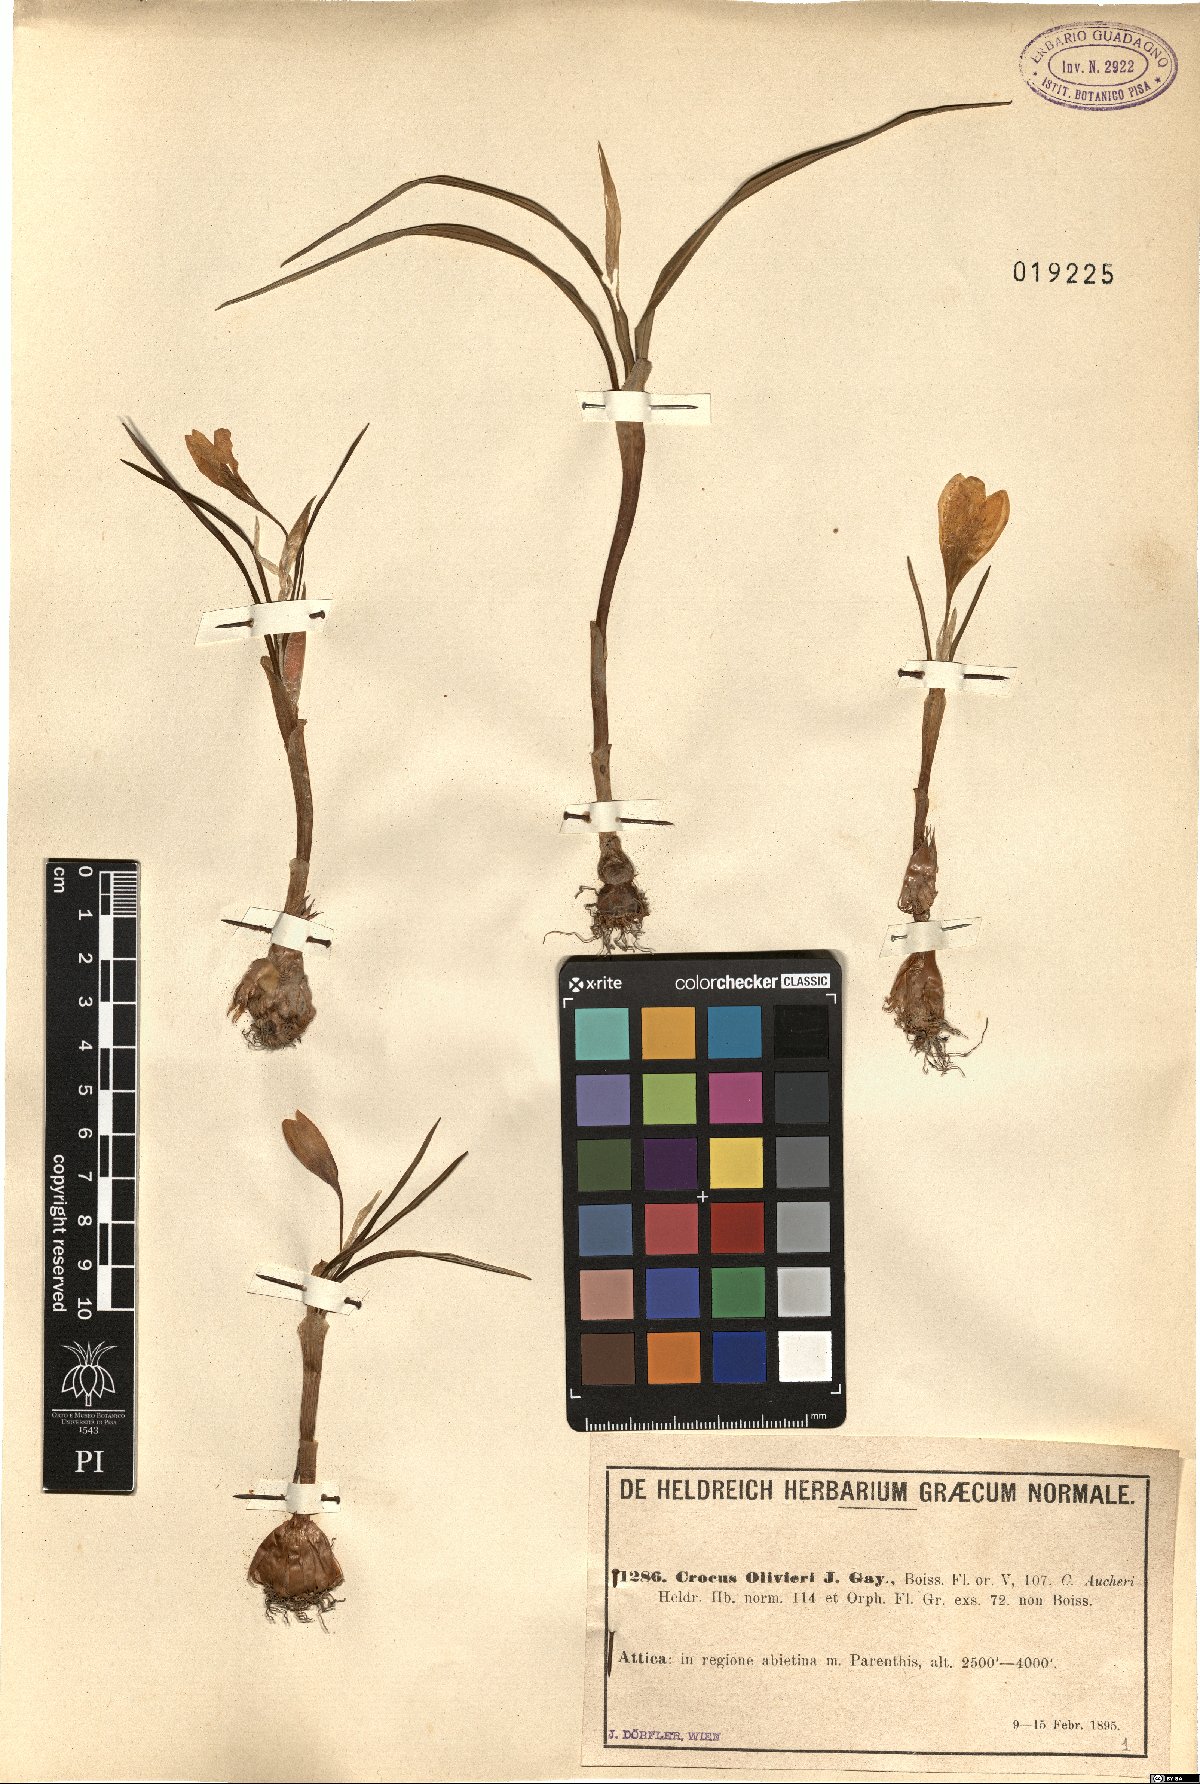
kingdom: Plantae
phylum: Tracheophyta
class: Liliopsida
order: Asparagales
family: Iridaceae
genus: Crocus
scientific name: Crocus olivieri
